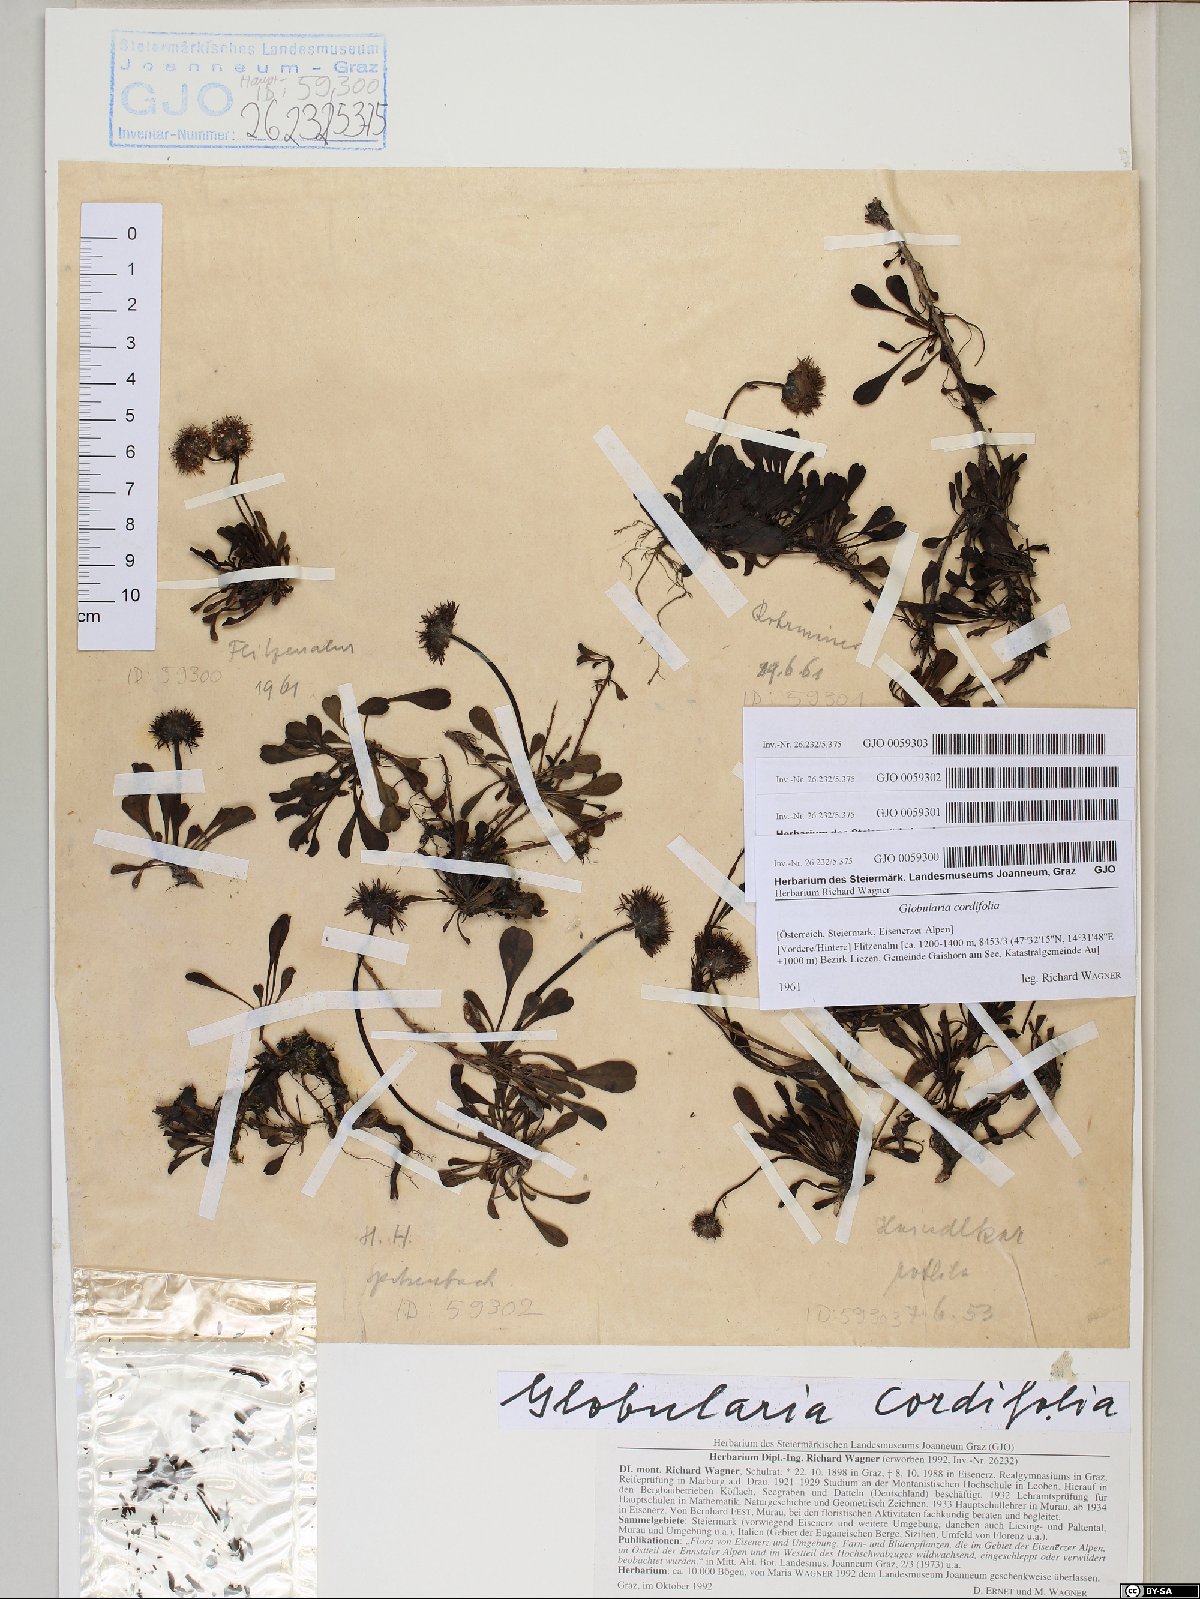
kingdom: Plantae
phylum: Tracheophyta
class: Magnoliopsida
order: Lamiales
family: Plantaginaceae
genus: Globularia
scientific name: Globularia cordifolia
